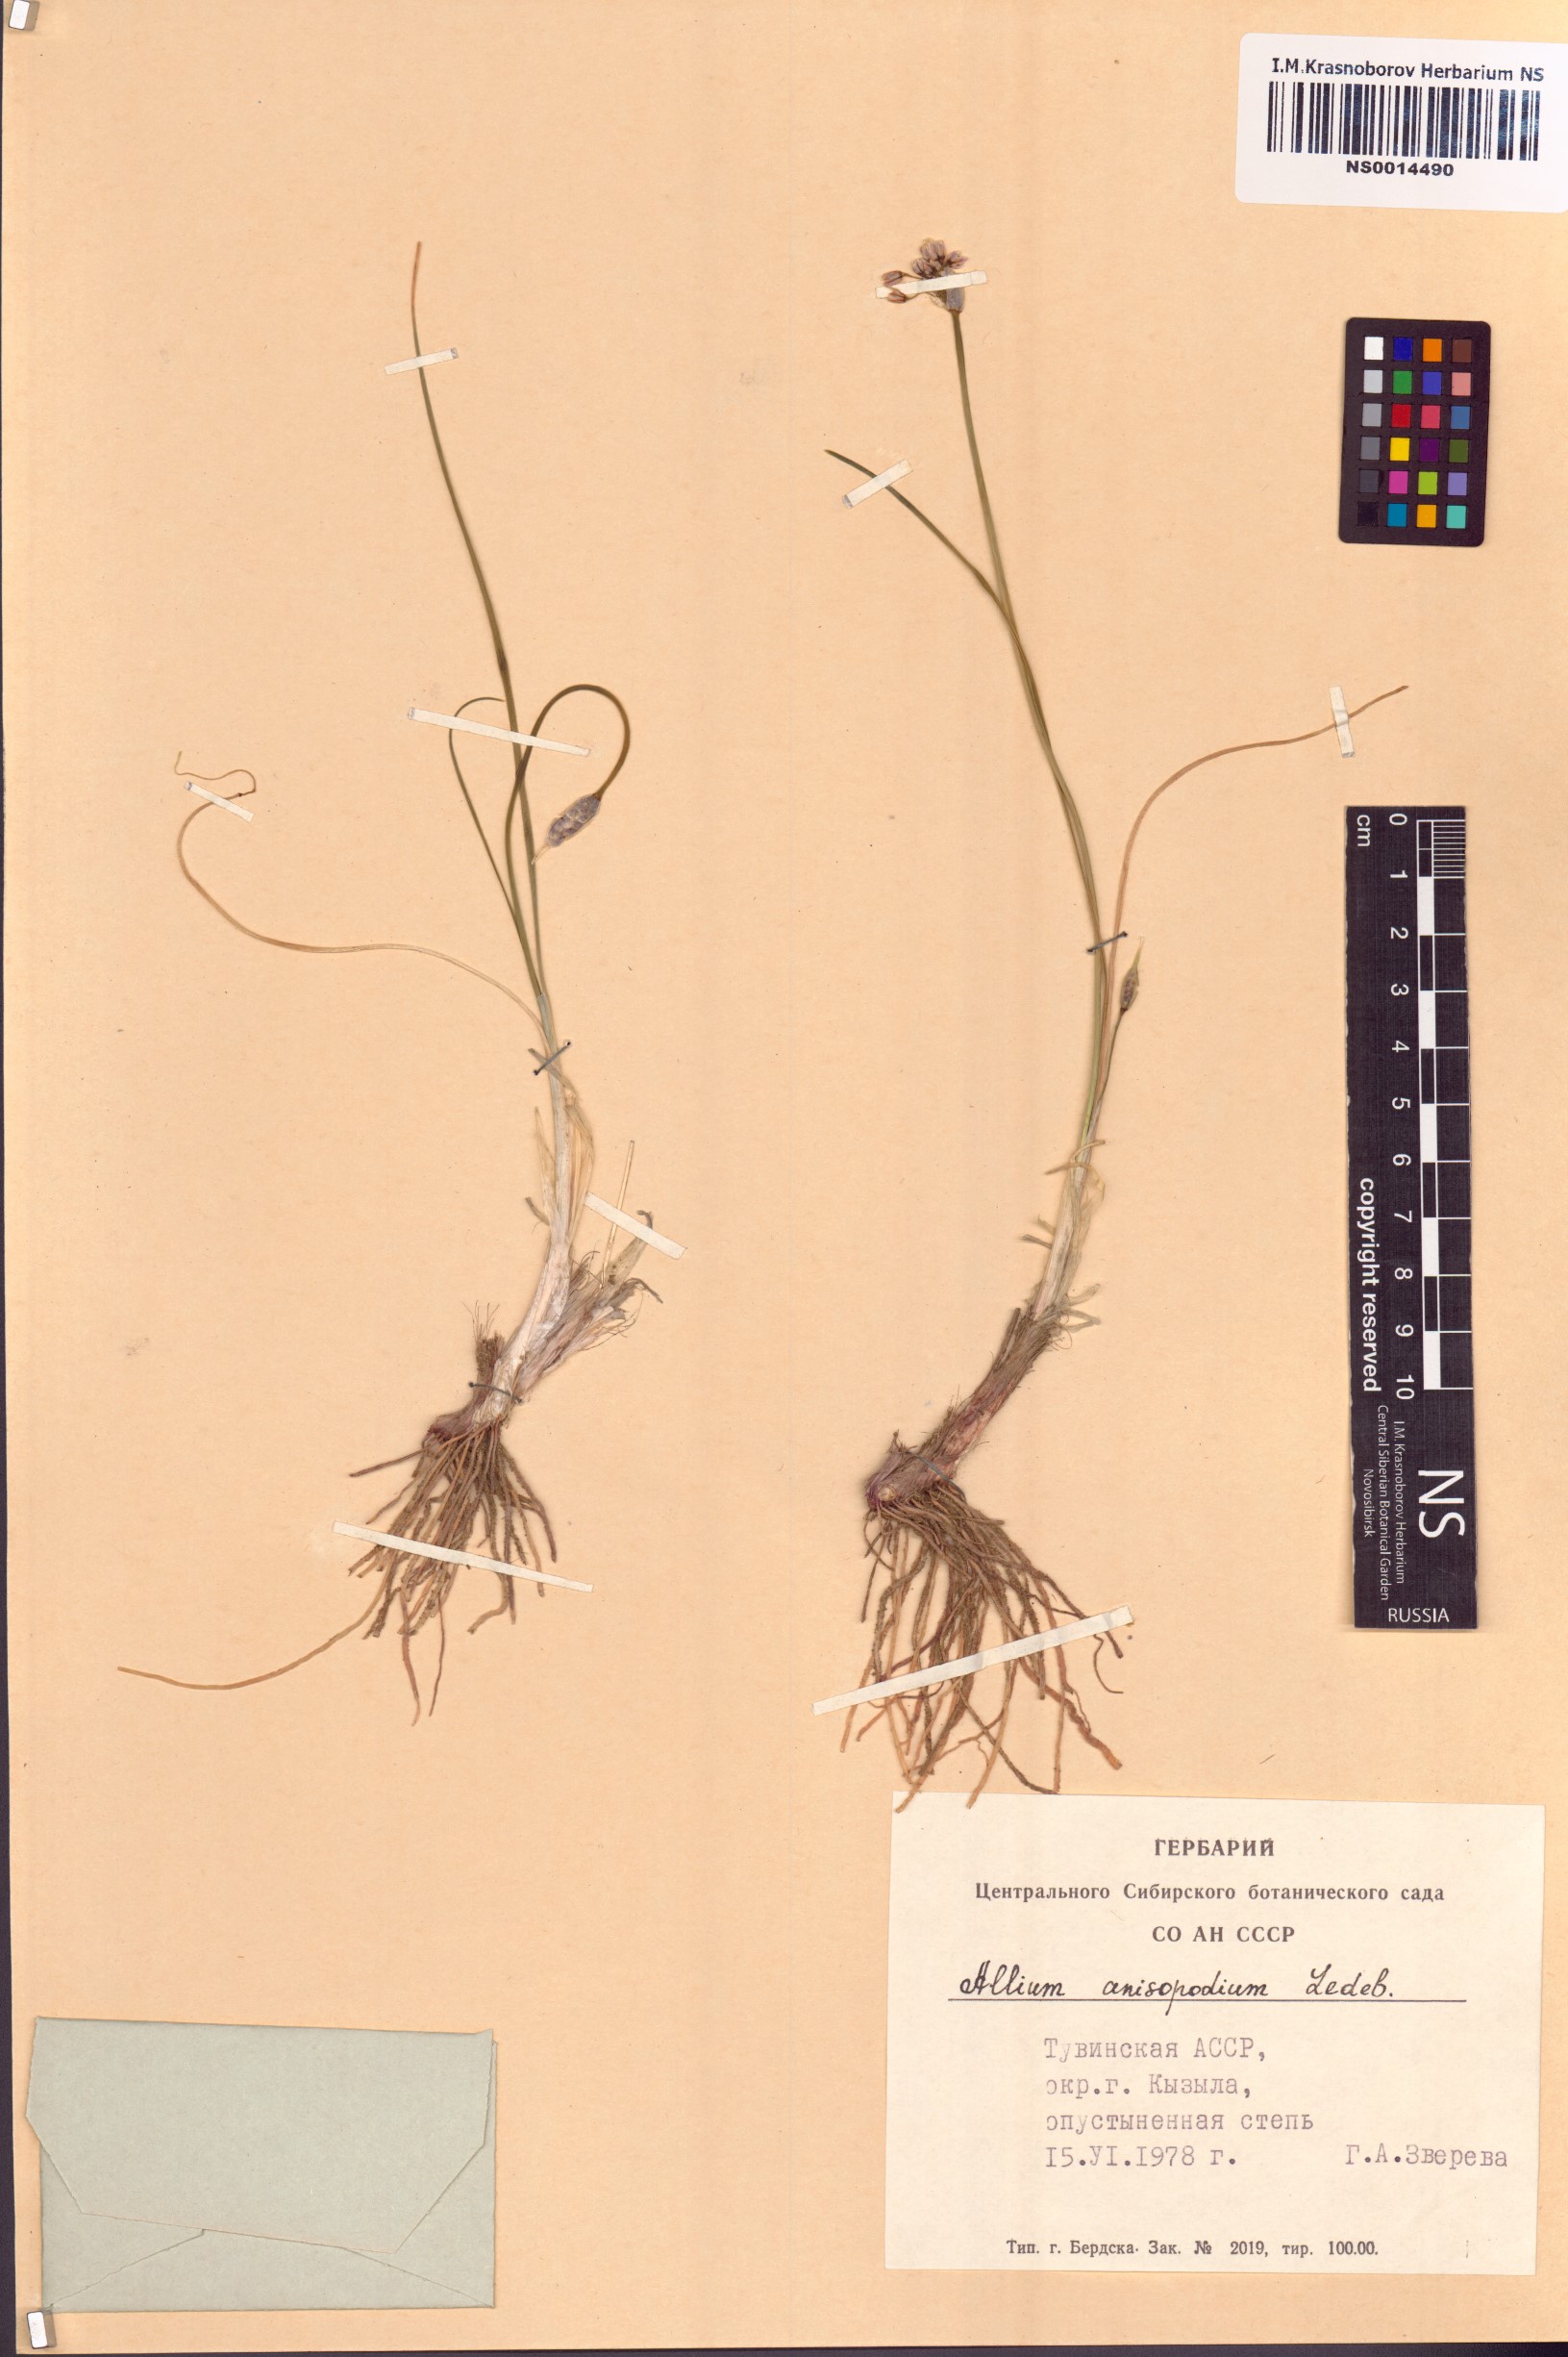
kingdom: Plantae
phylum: Tracheophyta
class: Liliopsida
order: Asparagales
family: Amaryllidaceae
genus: Allium
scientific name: Allium anisopodium
